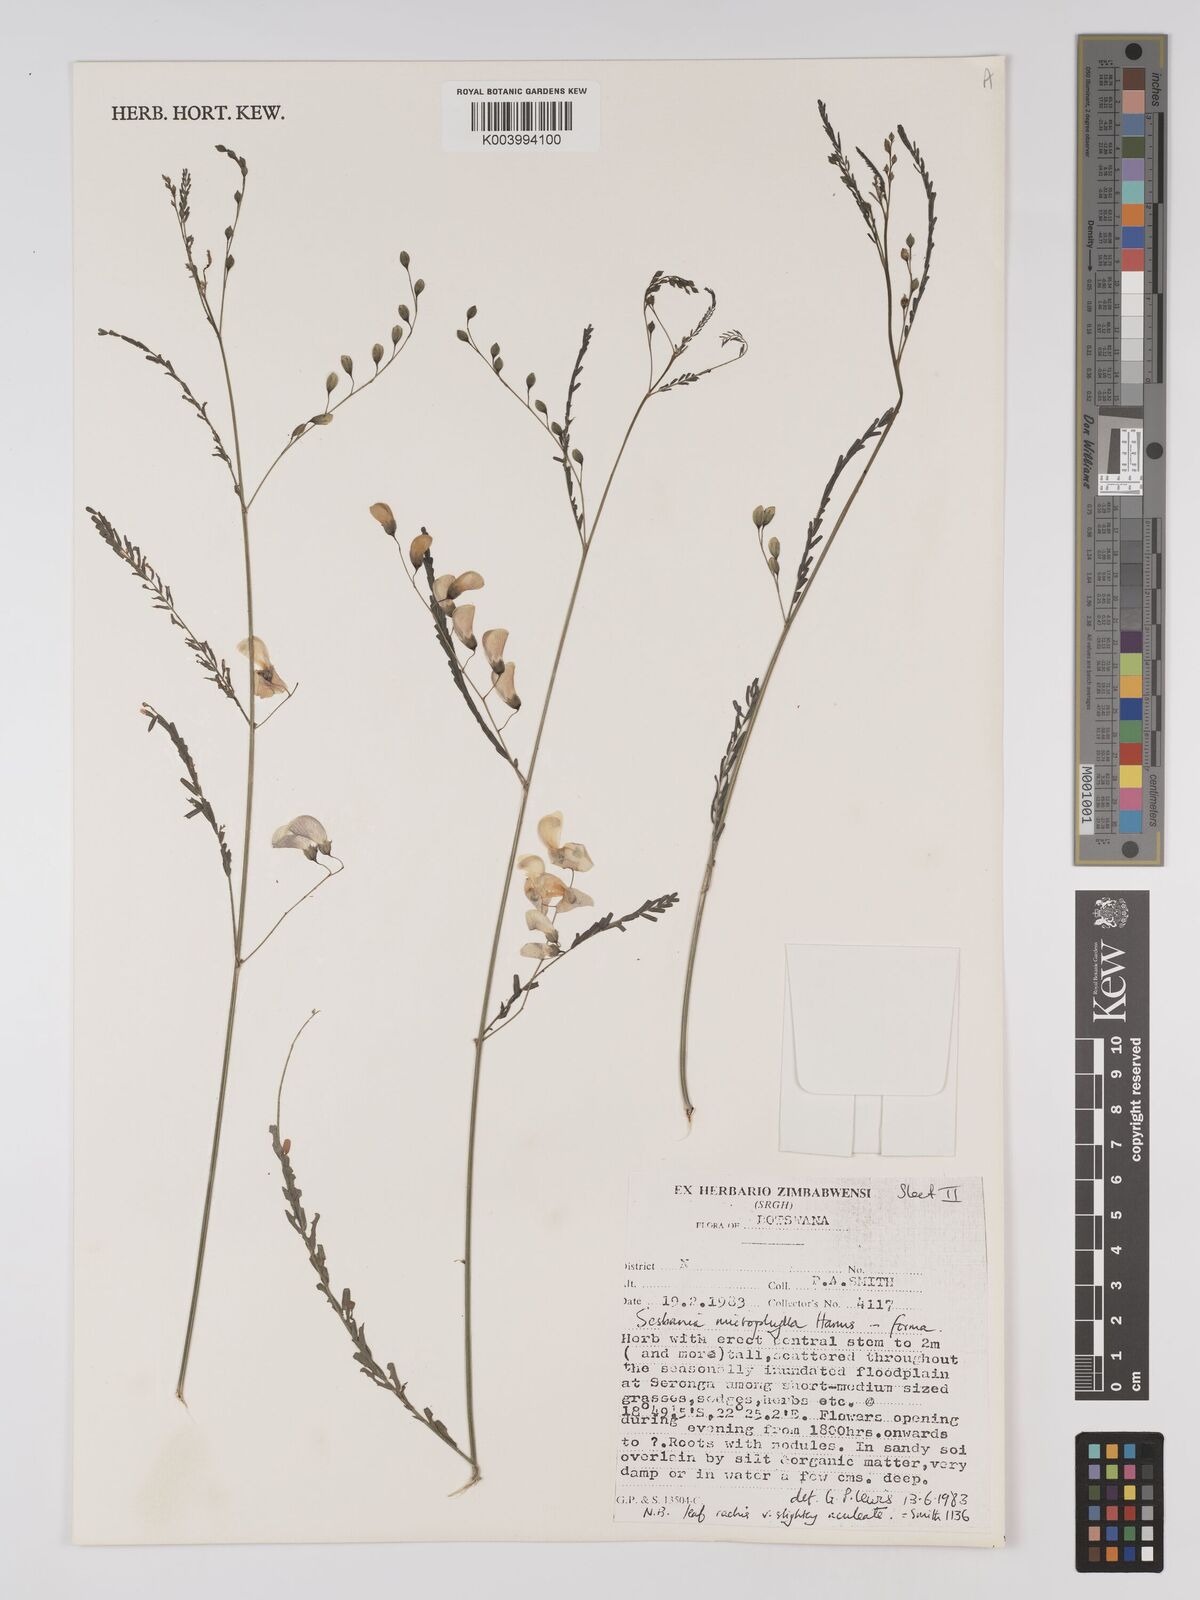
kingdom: Plantae
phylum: Tracheophyta
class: Magnoliopsida
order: Fabales
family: Fabaceae
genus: Sesbania
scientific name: Sesbania microphylla
